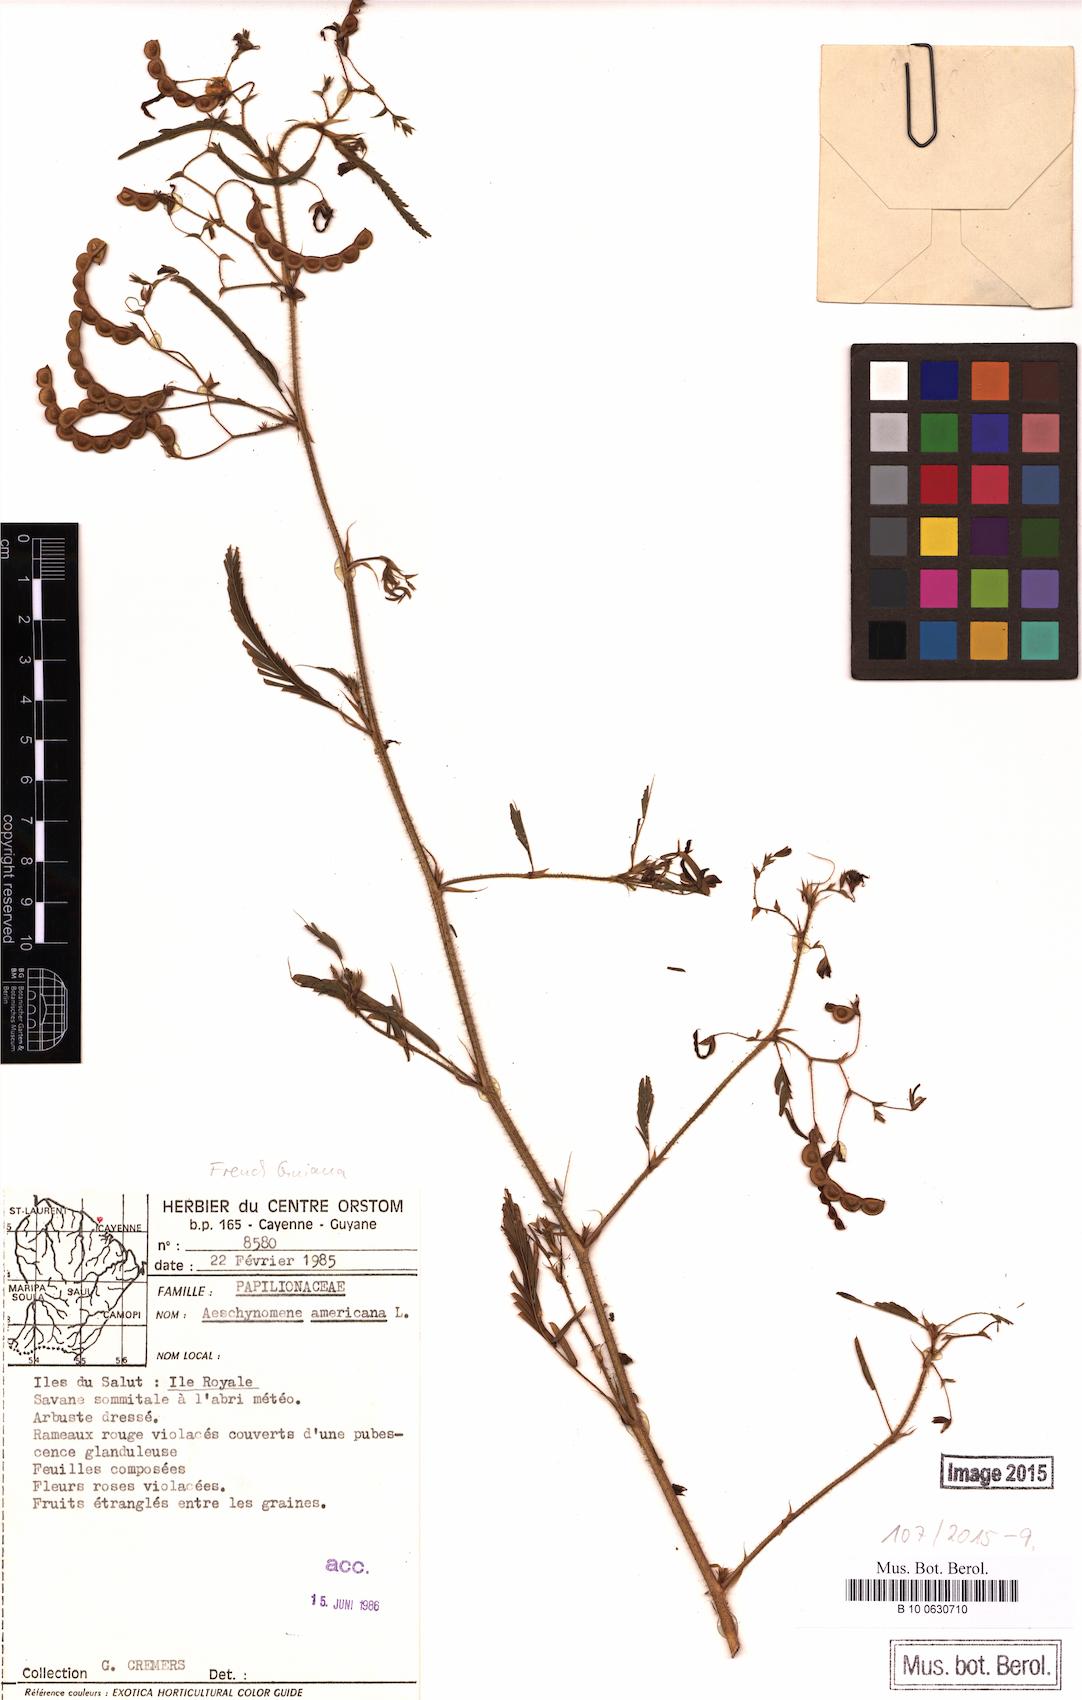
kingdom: Plantae
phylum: Tracheophyta
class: Magnoliopsida
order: Fabales
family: Fabaceae
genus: Aeschynomene
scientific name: Aeschynomene americana
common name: Joint-vetch
